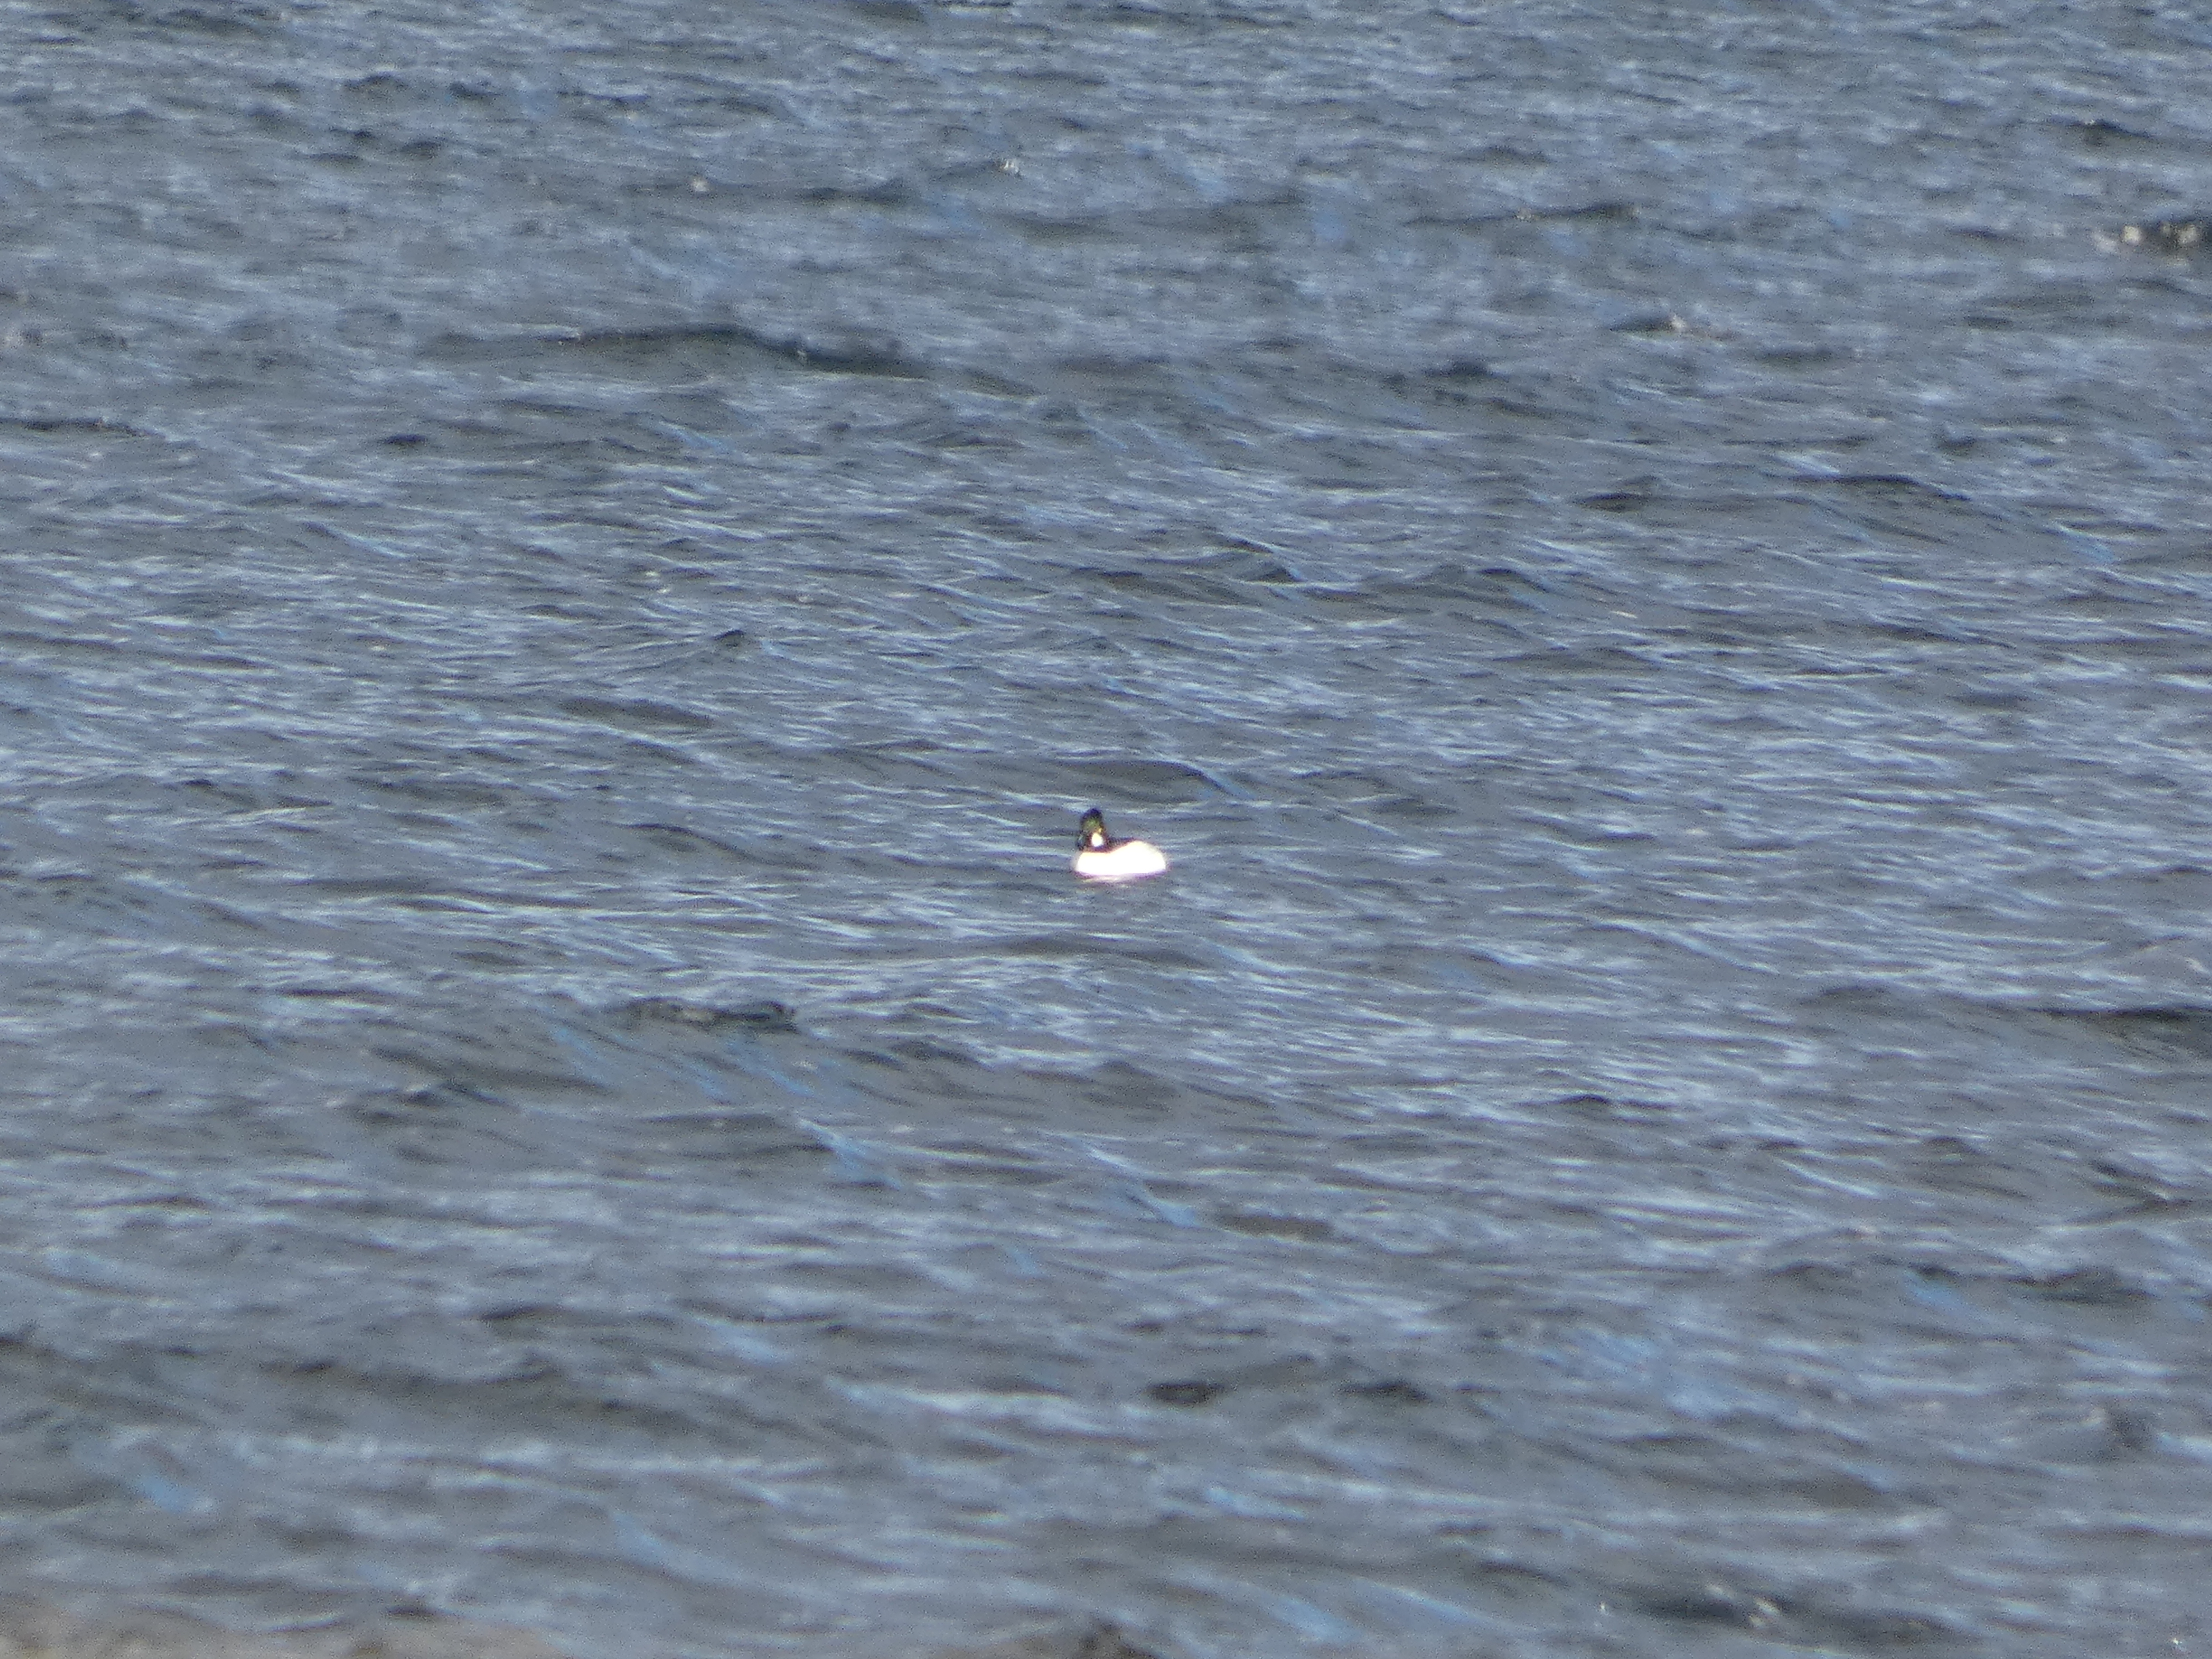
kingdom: Animalia
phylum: Chordata
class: Aves
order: Anseriformes
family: Anatidae
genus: Bucephala
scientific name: Bucephala clangula
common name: Hvinand
